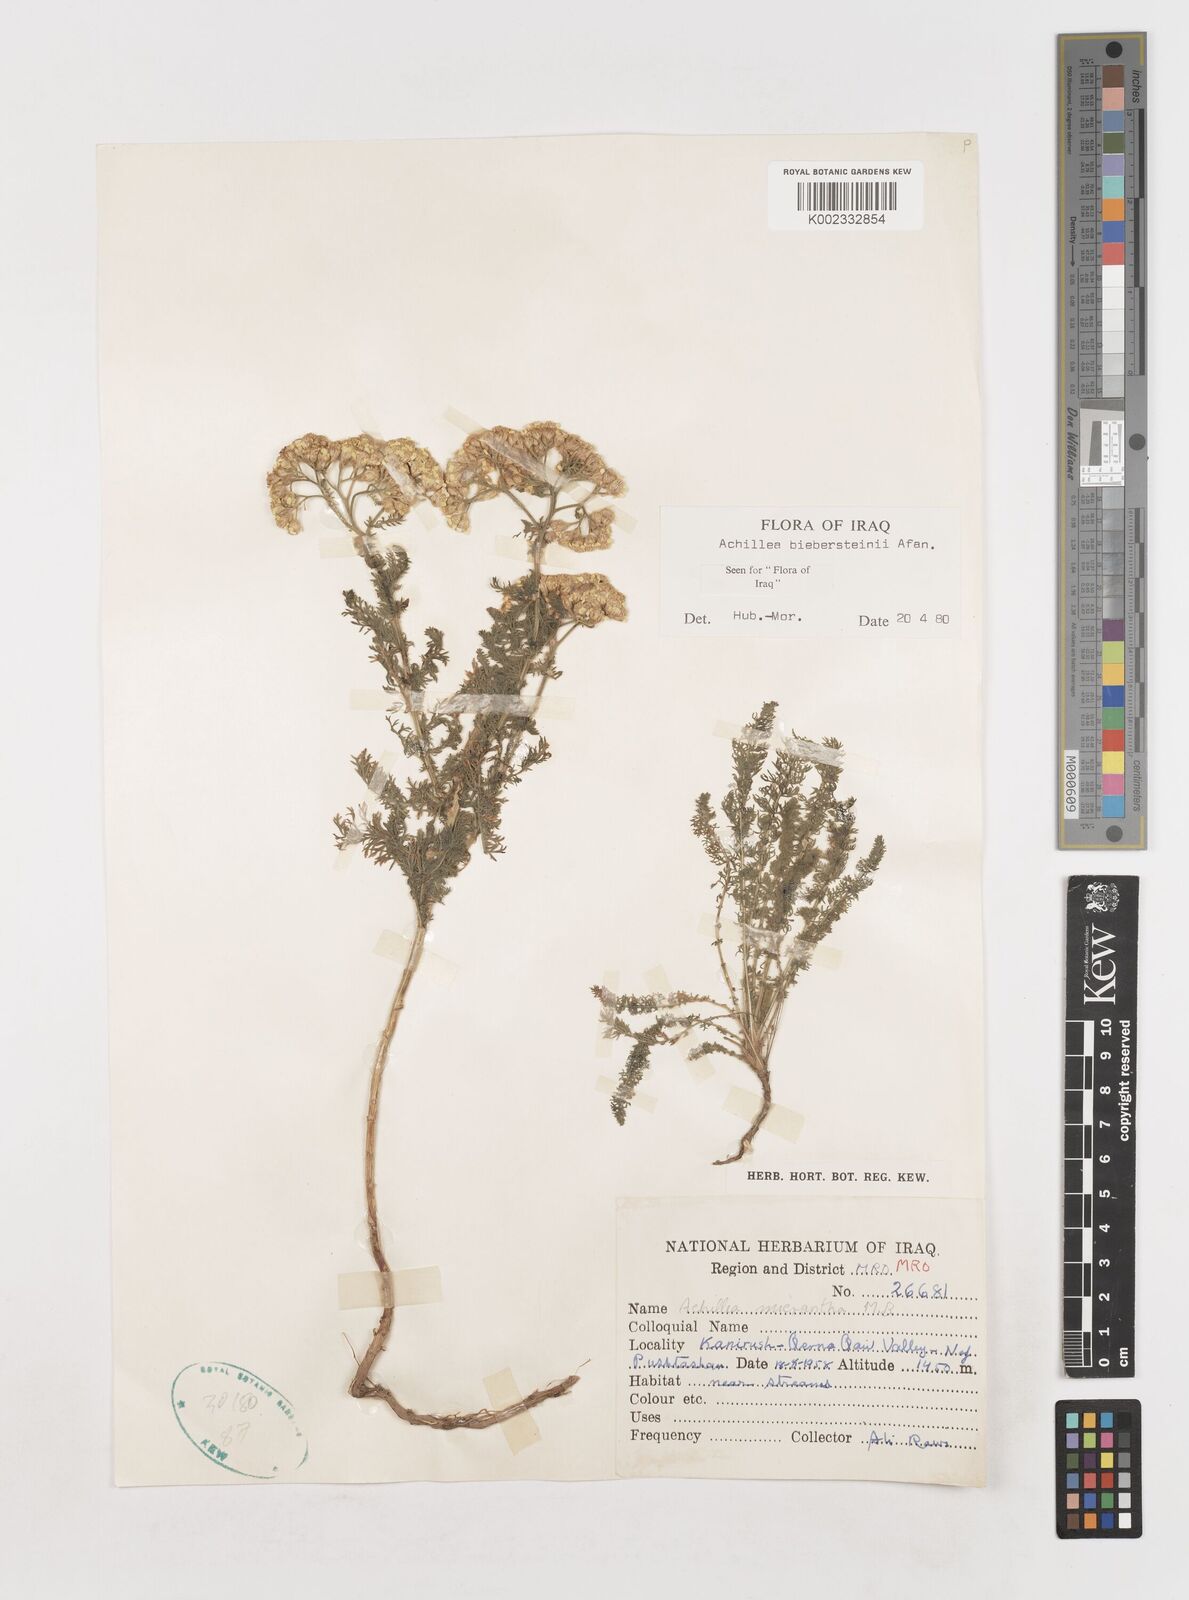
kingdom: Plantae
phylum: Tracheophyta
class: Magnoliopsida
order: Asterales
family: Asteraceae
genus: Achillea
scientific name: Achillea arabica
